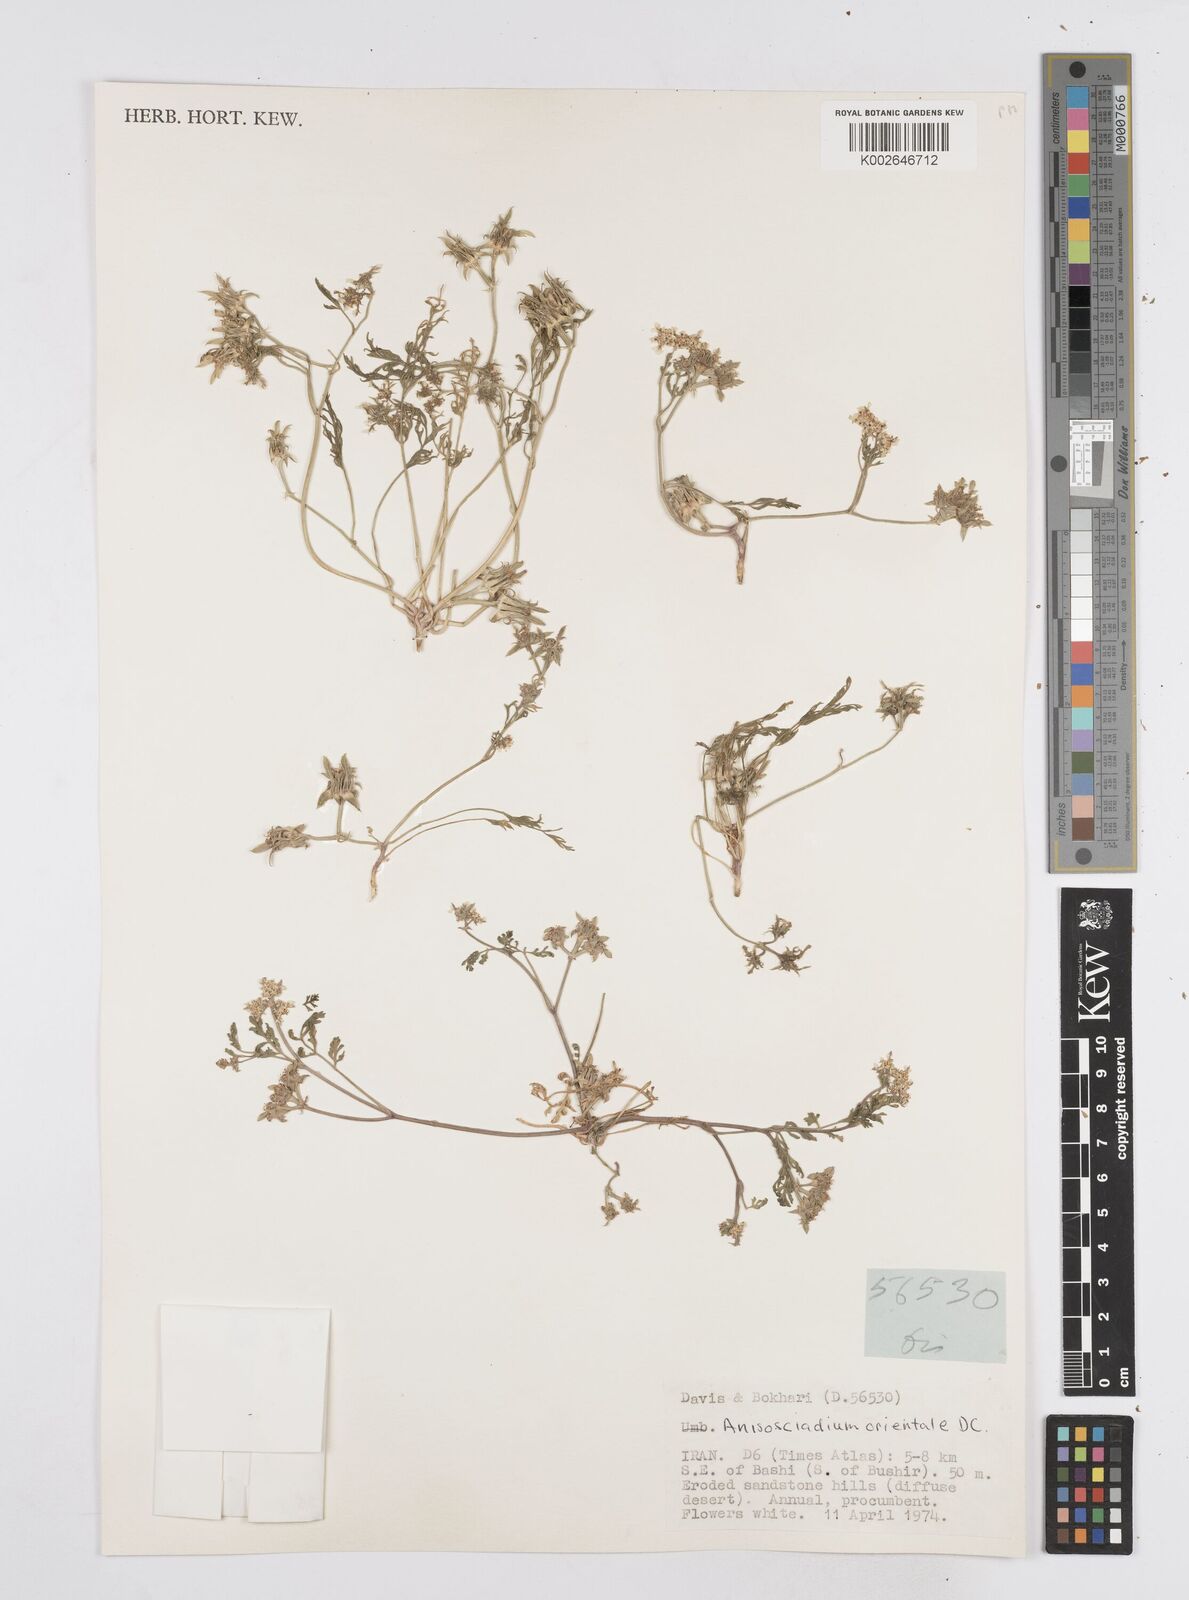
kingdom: Plantae
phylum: Tracheophyta
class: Magnoliopsida
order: Apiales
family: Apiaceae
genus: Anisosciadium
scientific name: Anisosciadium orientale
